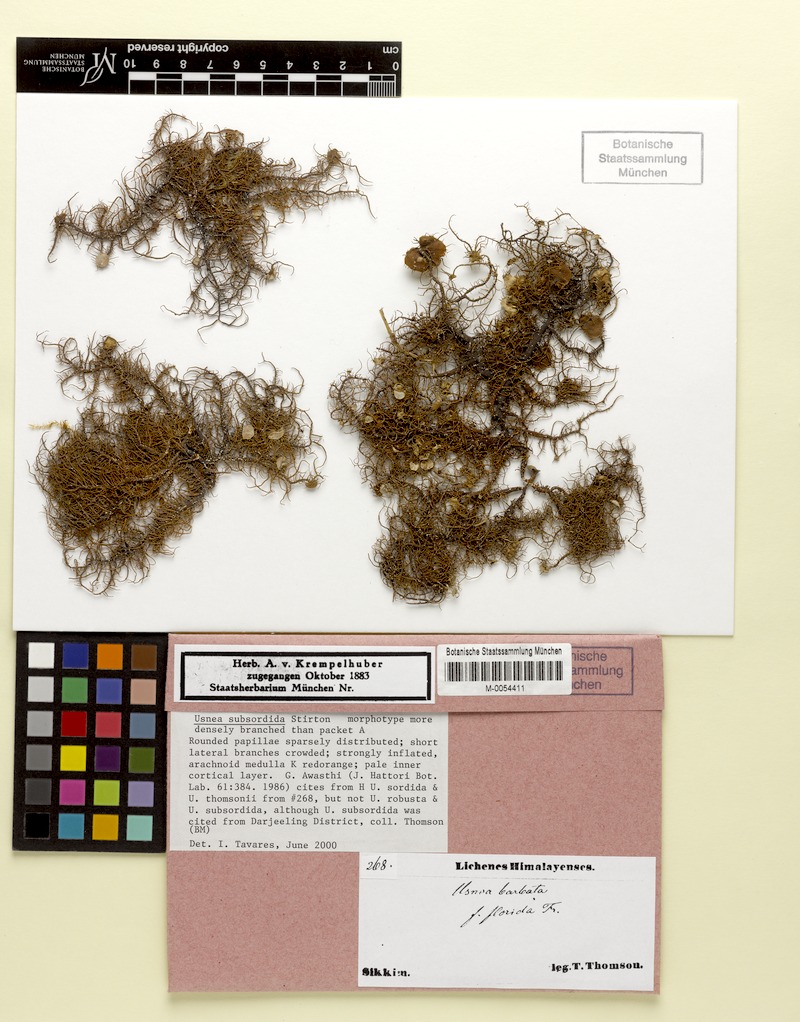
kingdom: Fungi
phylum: Ascomycota
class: Lecanoromycetes
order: Lecanorales
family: Parmeliaceae
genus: Usnea
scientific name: Usnea subsordida
